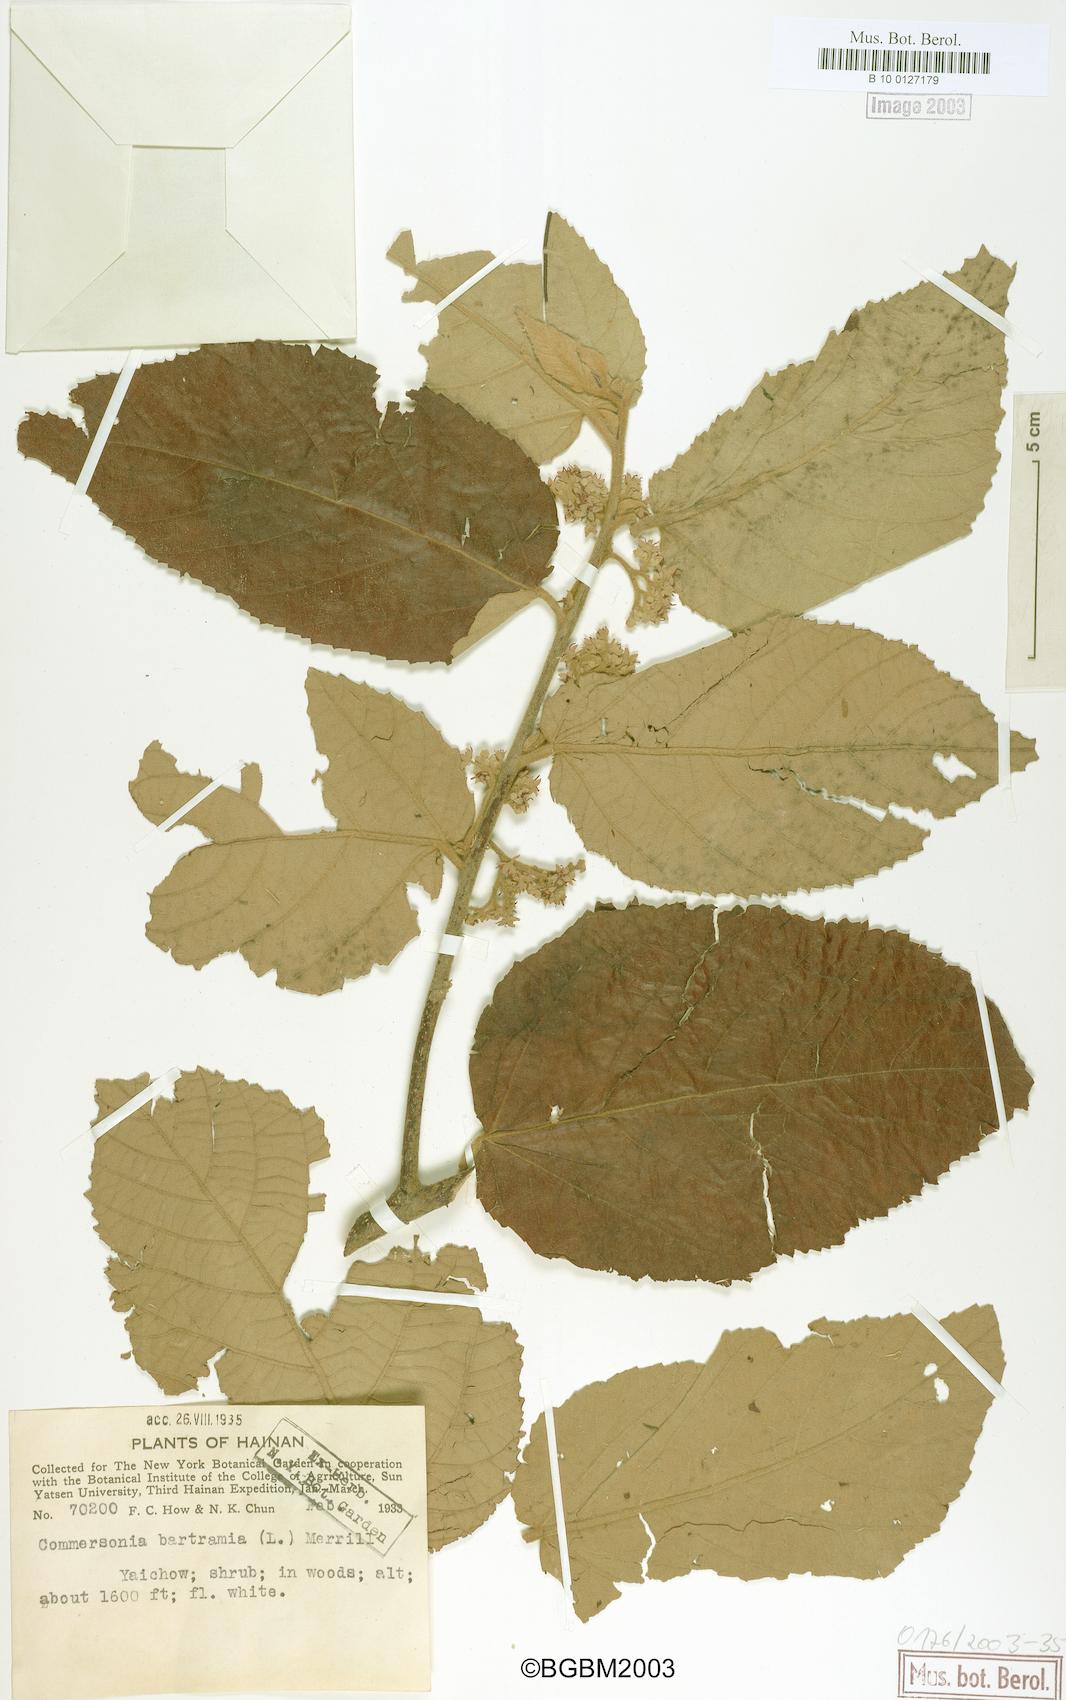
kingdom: Plantae
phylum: Tracheophyta
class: Magnoliopsida
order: Malvales
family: Malvaceae
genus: Commersonia
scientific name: Commersonia bartramia
